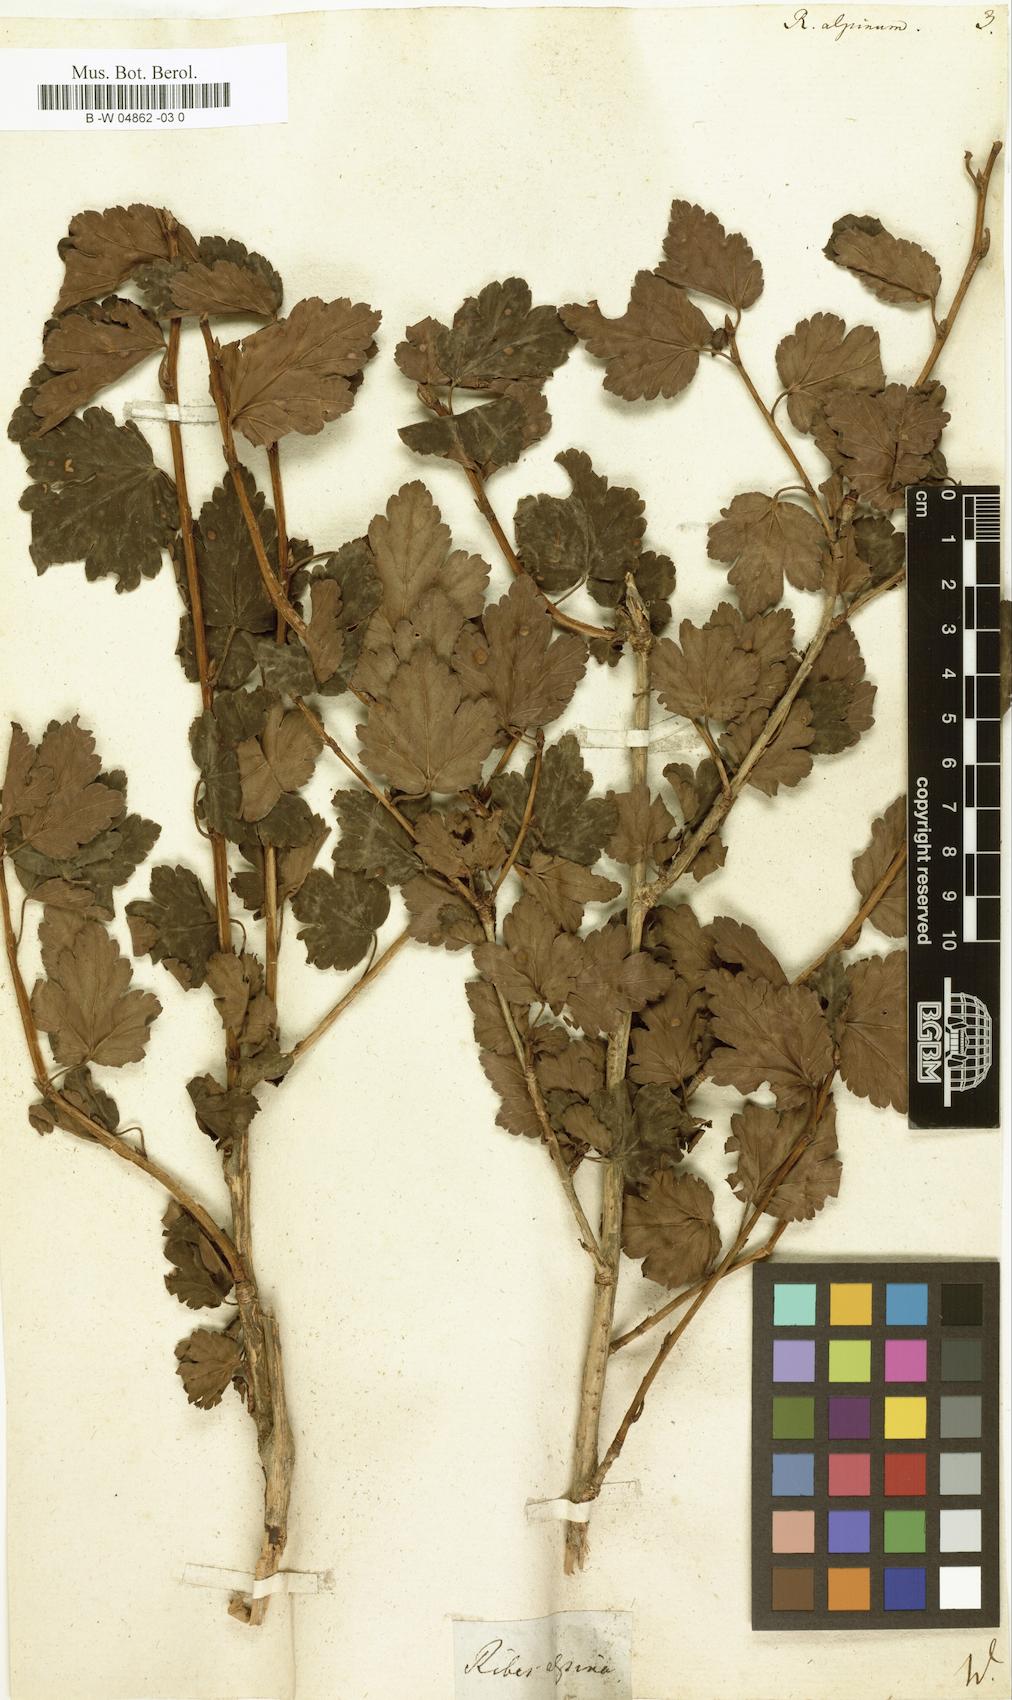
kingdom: Plantae
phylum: Tracheophyta
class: Magnoliopsida
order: Saxifragales
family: Grossulariaceae
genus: Ribes
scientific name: Ribes alpinum
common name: Alpine currant
